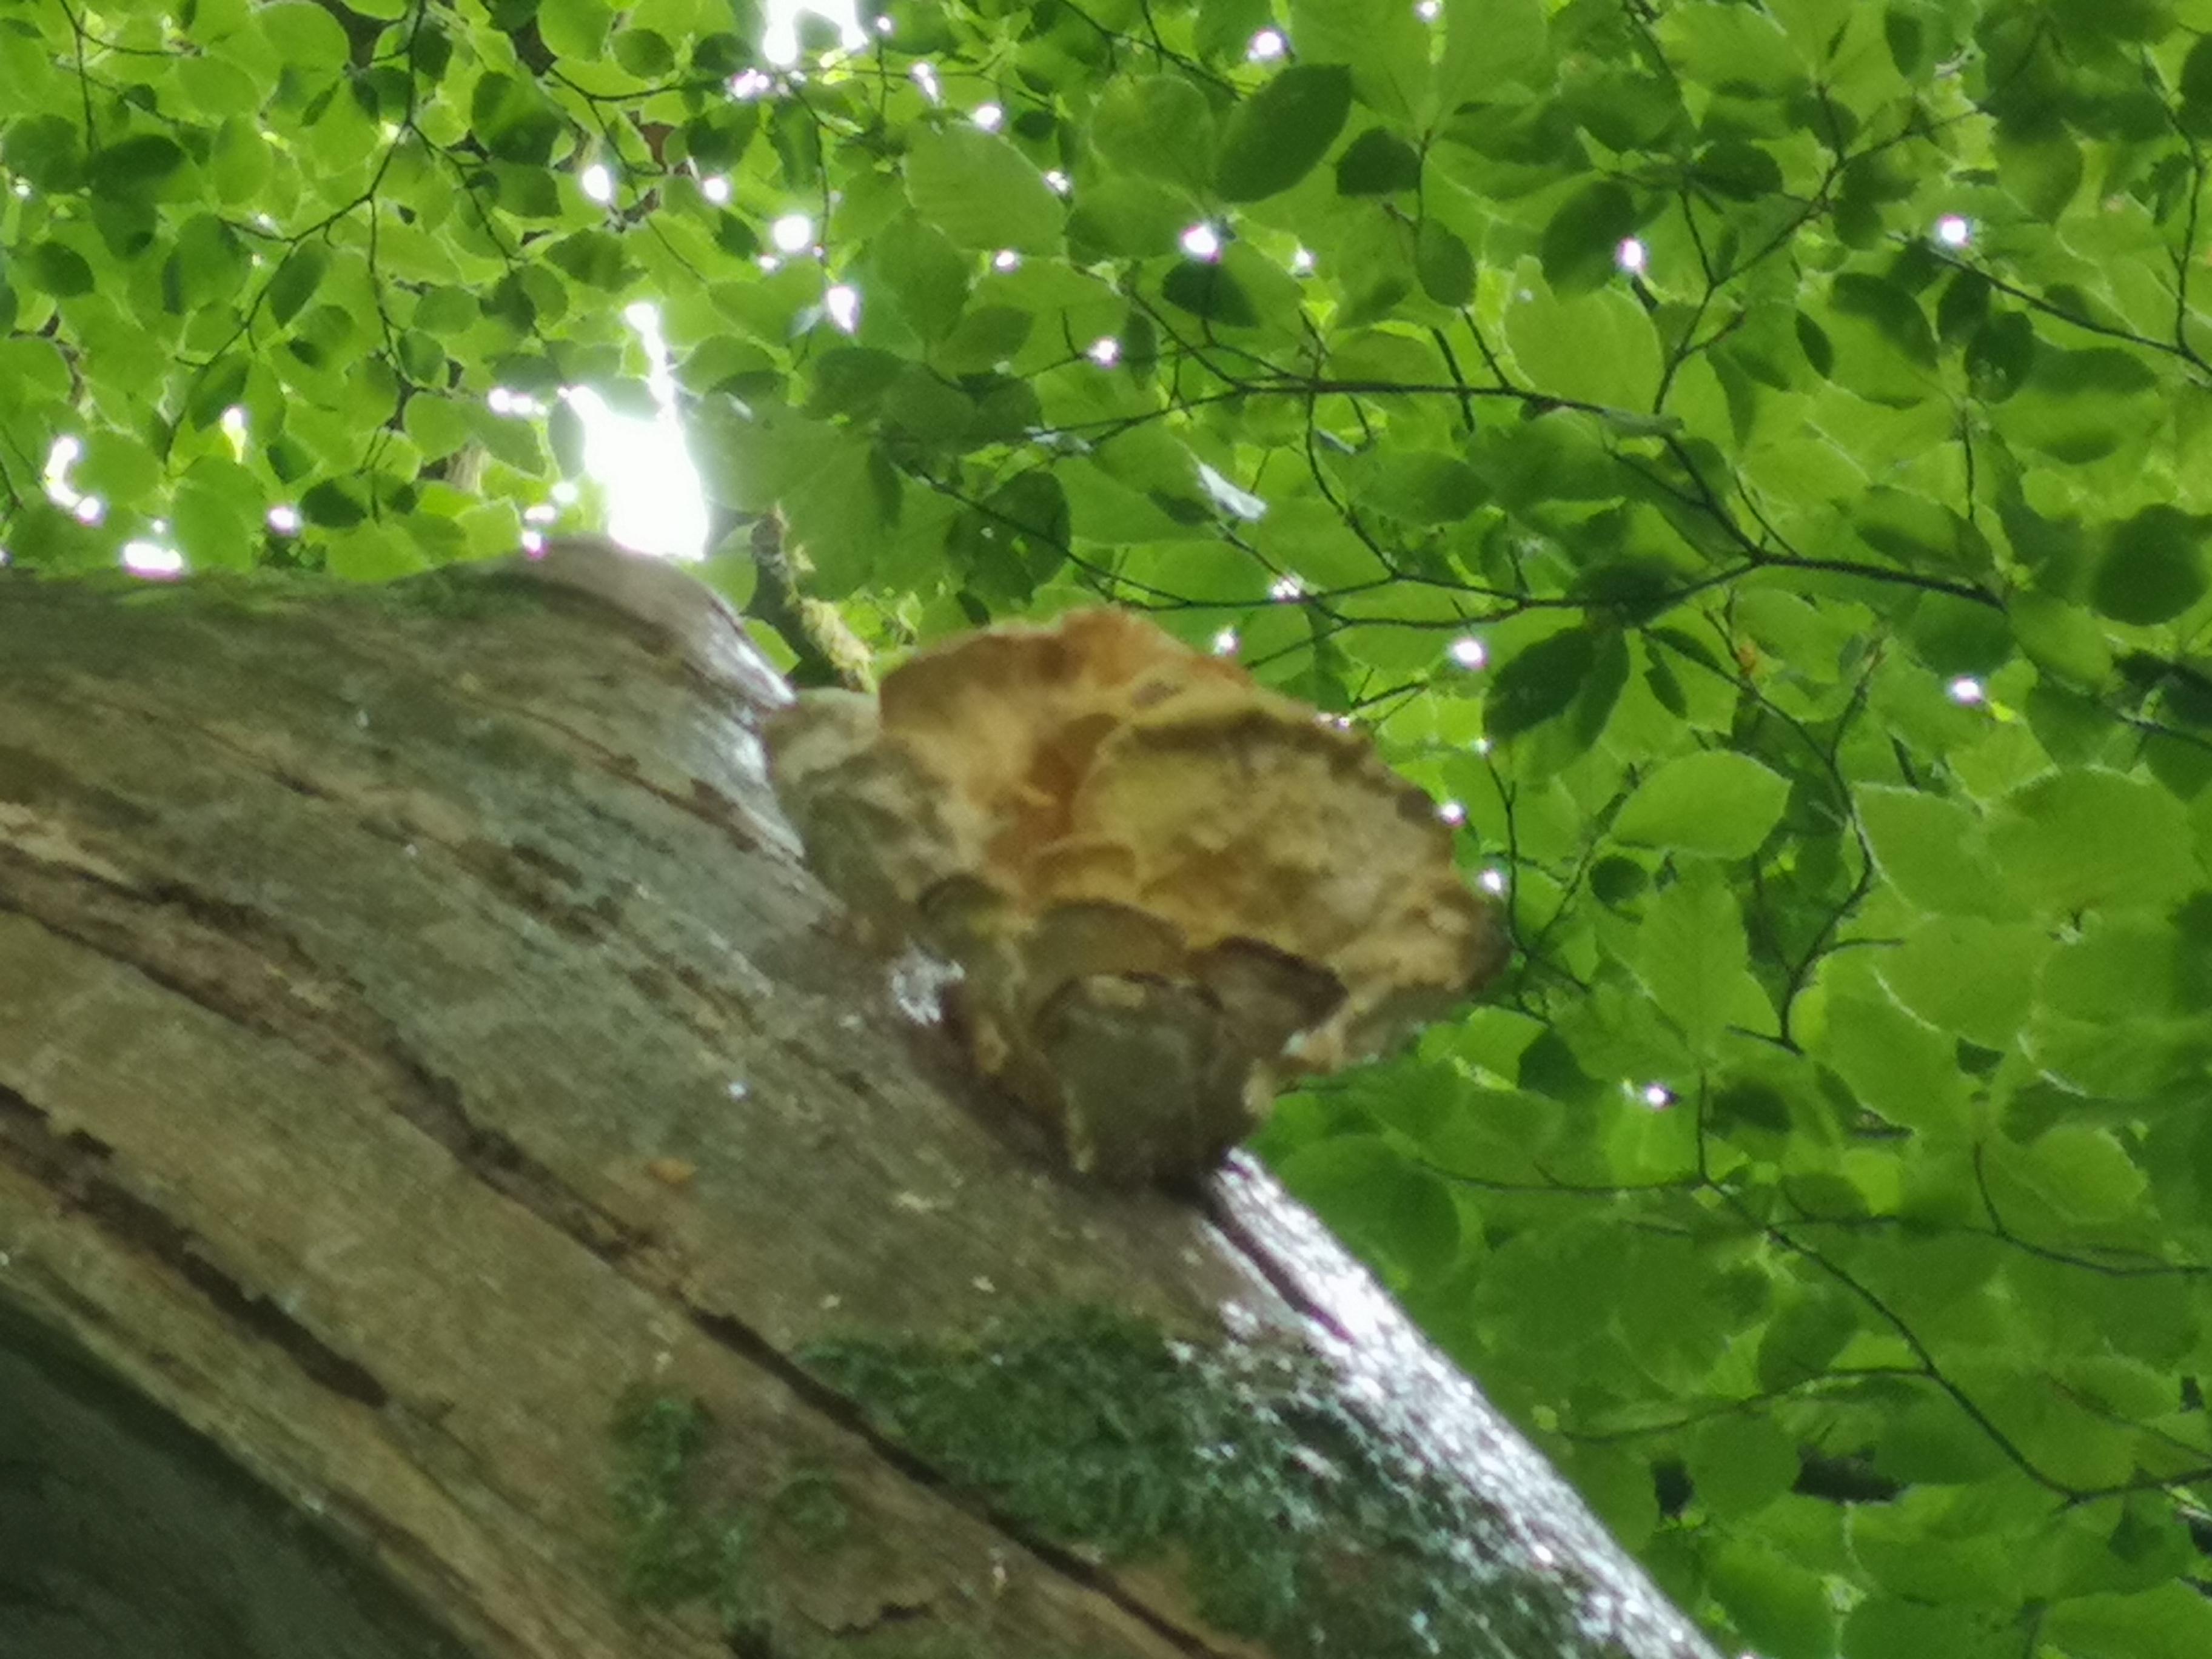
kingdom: Fungi
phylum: Basidiomycota
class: Agaricomycetes
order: Polyporales
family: Laetiporaceae
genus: Laetiporus
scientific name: Laetiporus sulphureus
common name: svovlporesvamp
